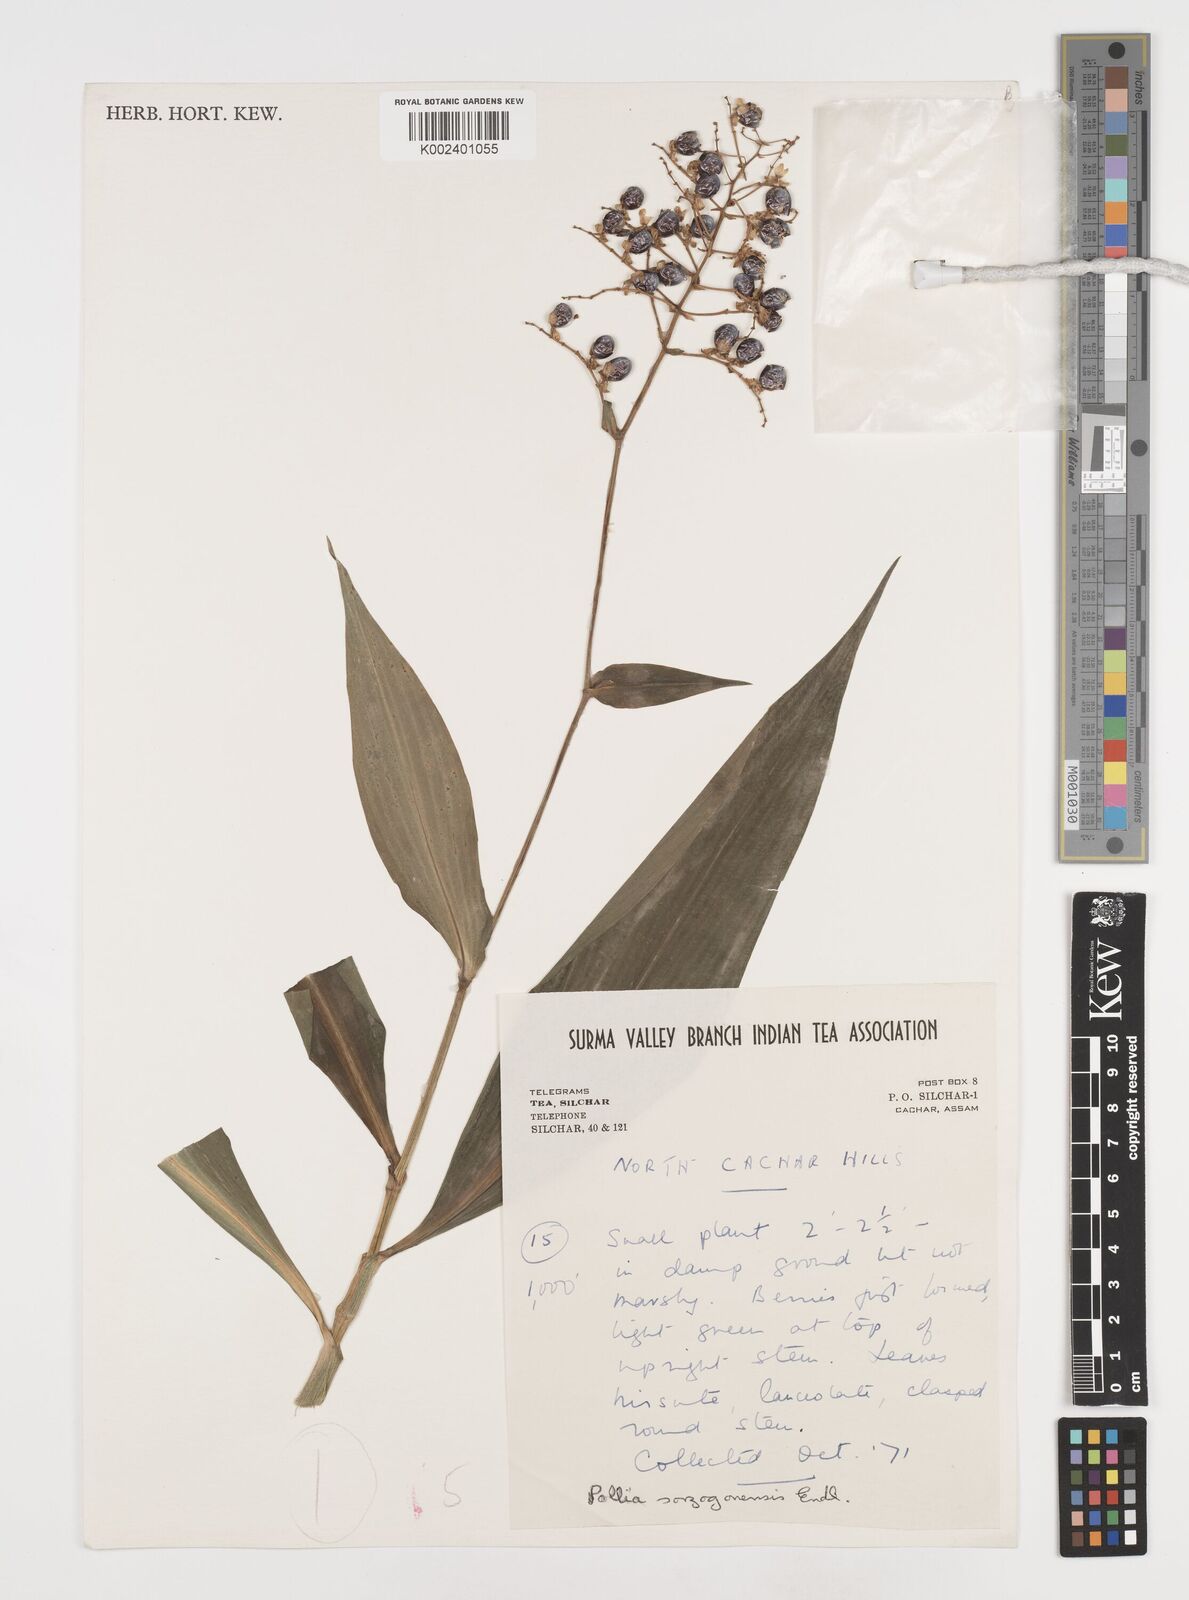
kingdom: Plantae
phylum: Tracheophyta
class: Liliopsida
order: Commelinales
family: Commelinaceae
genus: Pollia
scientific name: Pollia secundiflora
